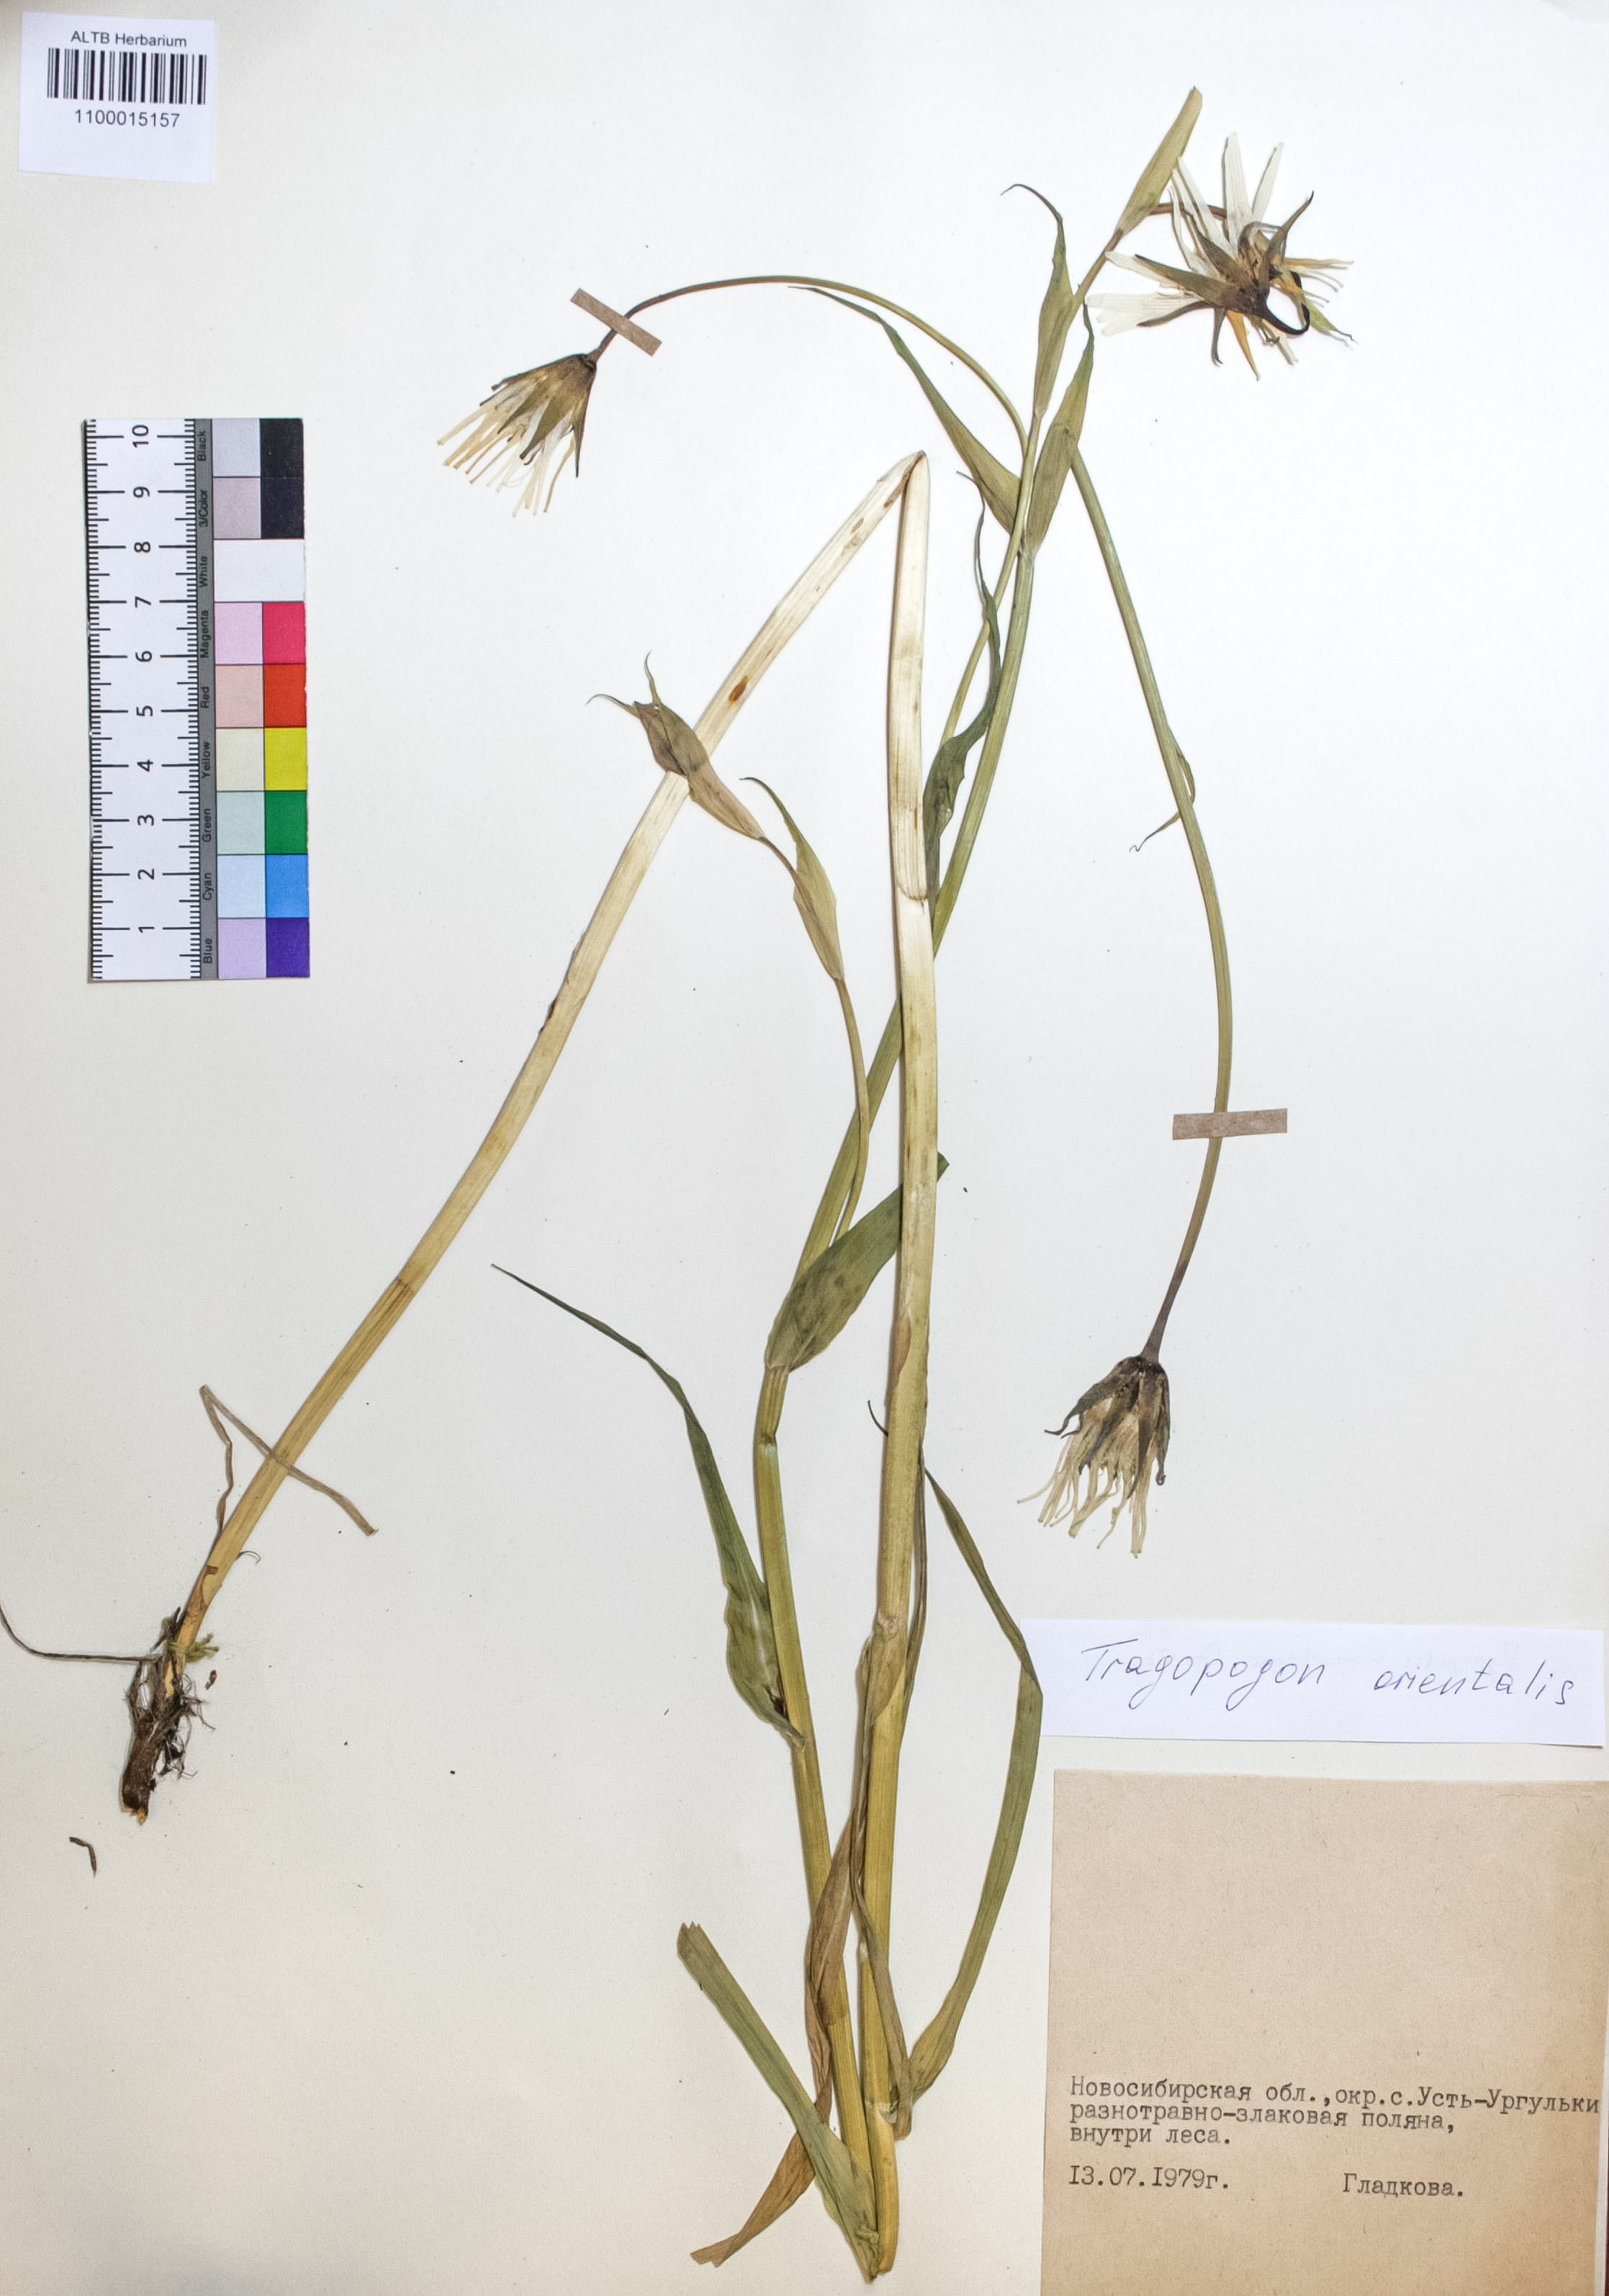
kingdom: Plantae
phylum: Tracheophyta
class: Magnoliopsida
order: Asterales
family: Asteraceae
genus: Tragopogon
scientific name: Tragopogon orientalis
